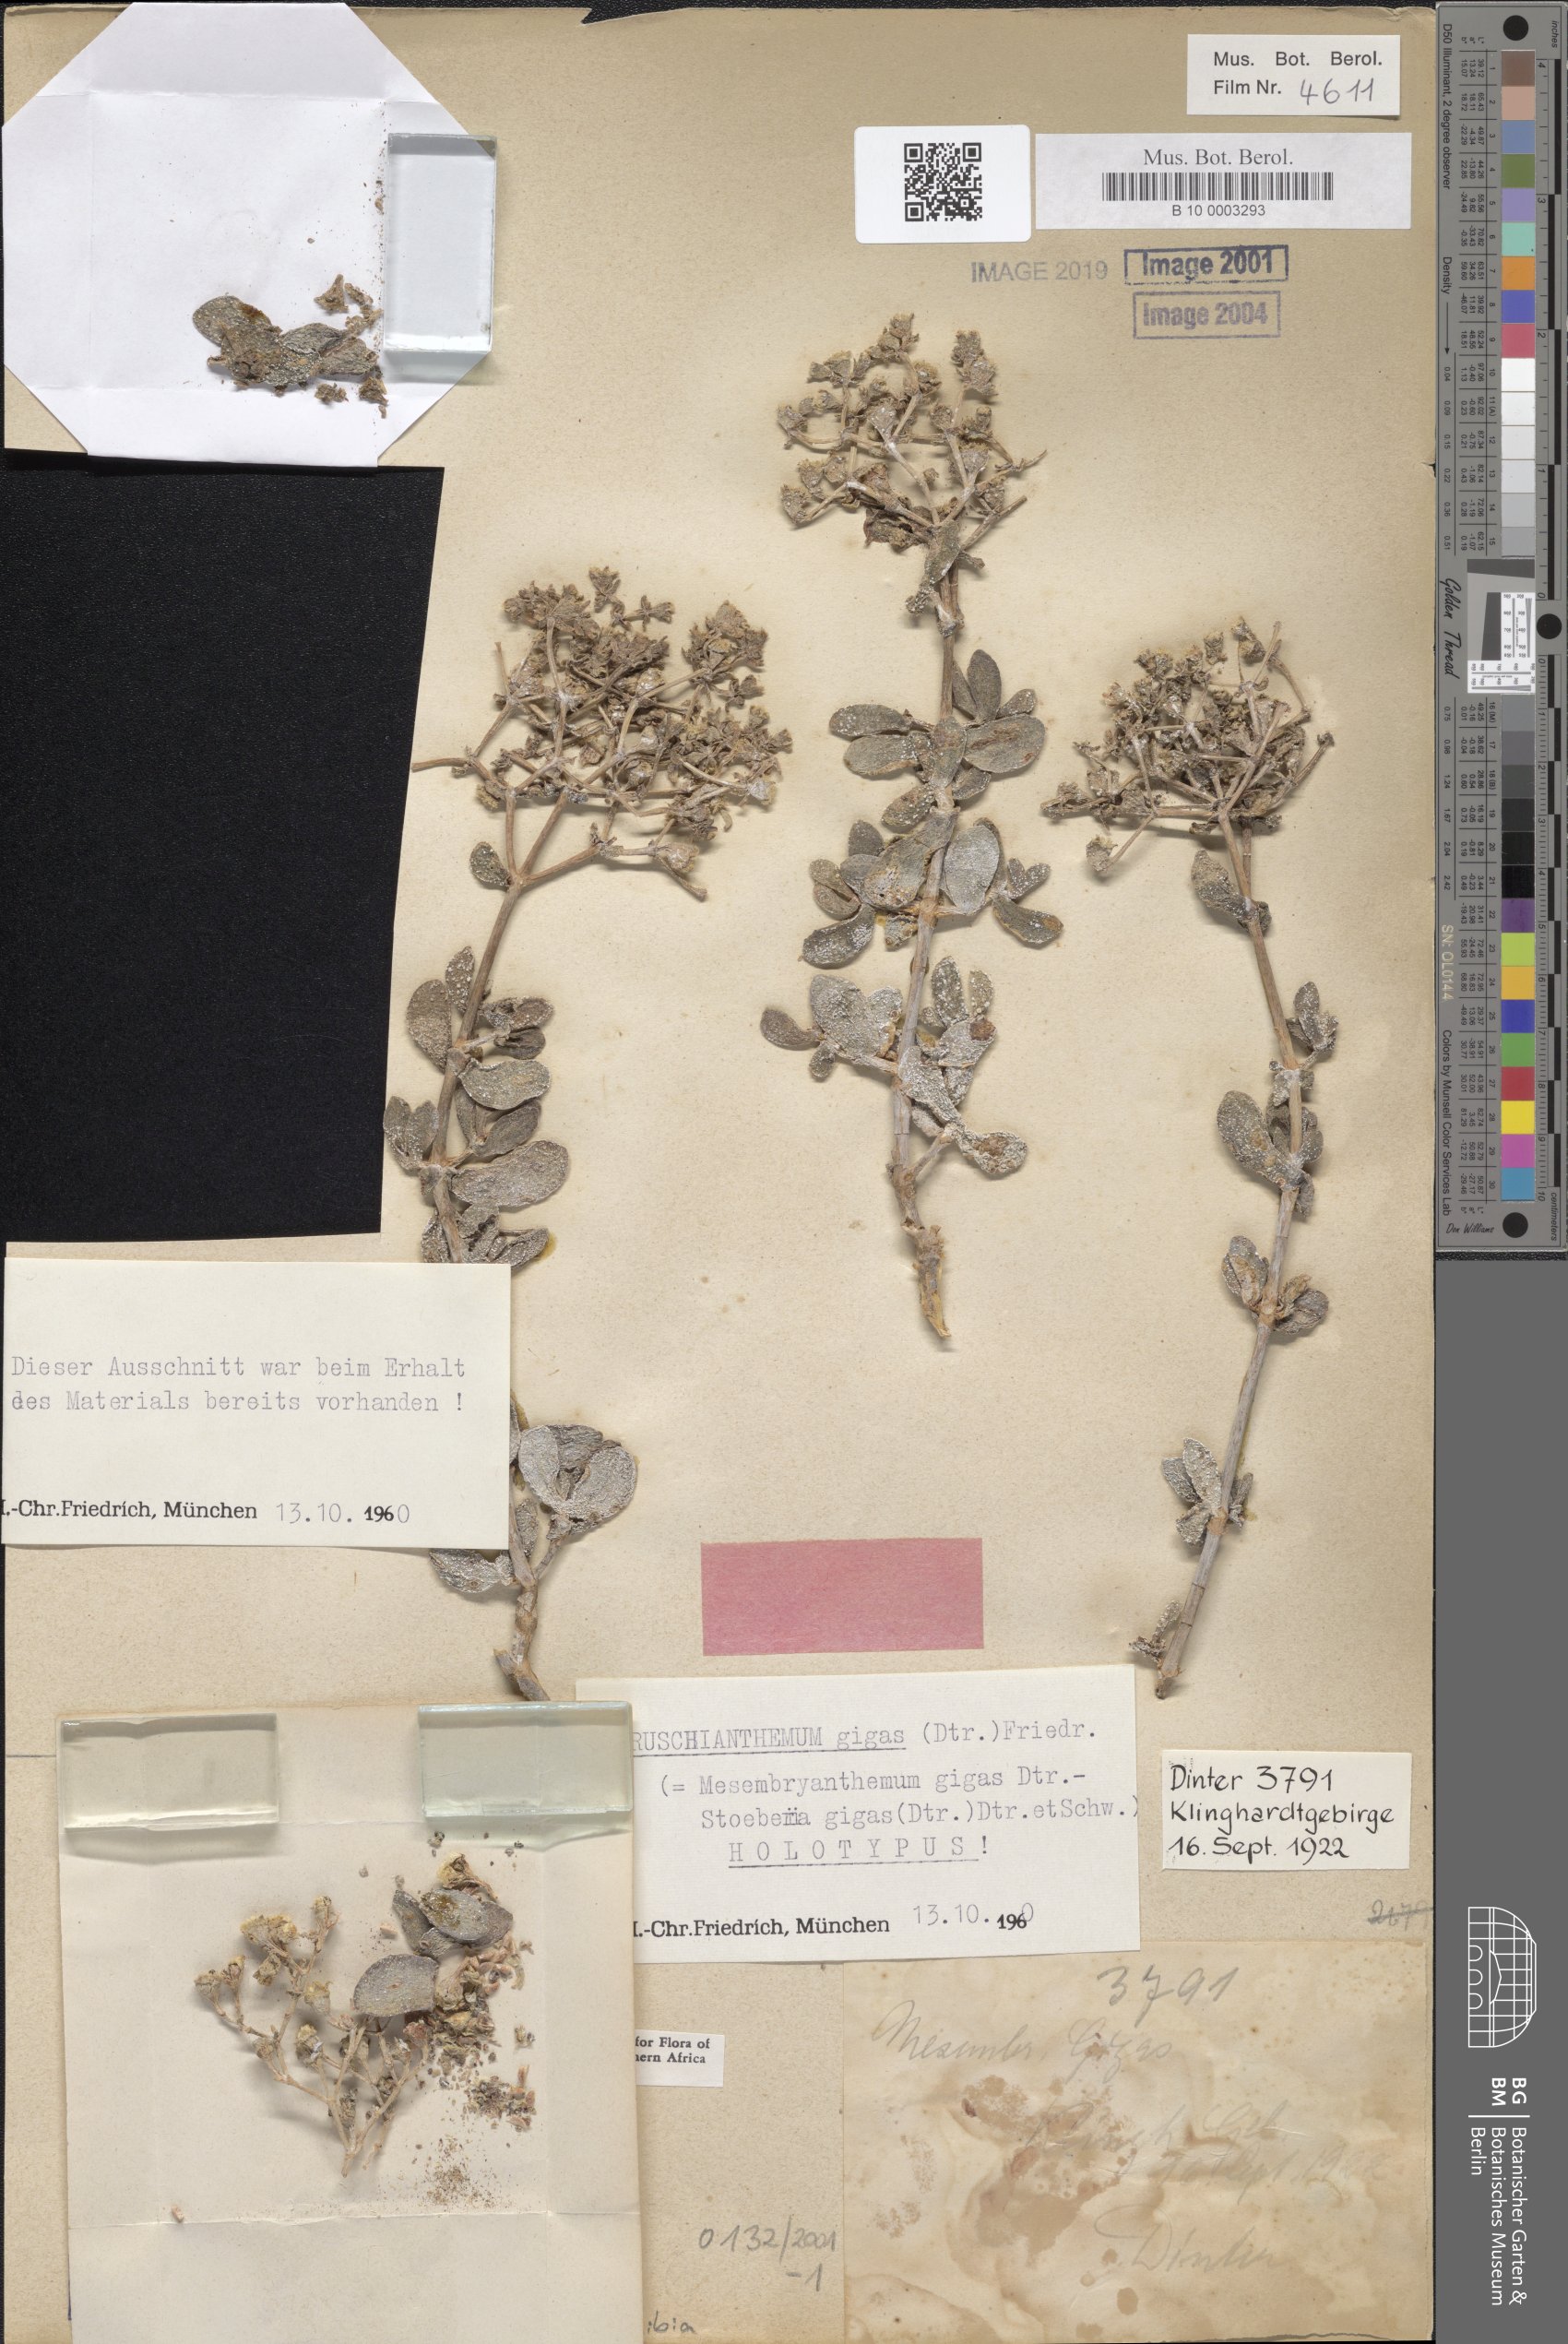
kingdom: Plantae
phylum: Tracheophyta
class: Magnoliopsida
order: Caryophyllales
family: Aizoaceae
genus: Ruschianthemum
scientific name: Ruschianthemum gigas
